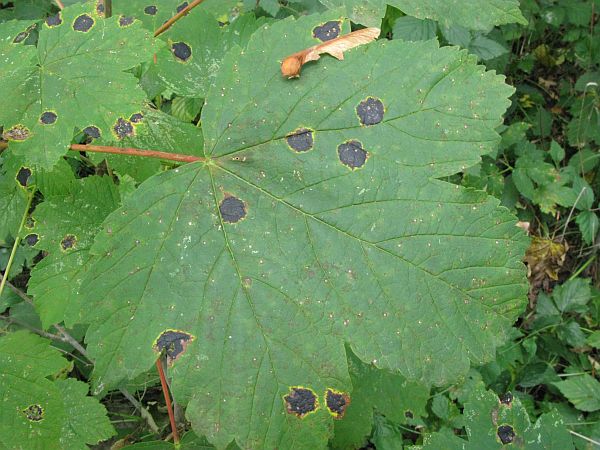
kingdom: Fungi
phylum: Ascomycota
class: Leotiomycetes
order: Rhytismatales
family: Rhytismataceae
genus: Rhytisma
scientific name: Rhytisma acerinum
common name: ahorn-rynkeplet
